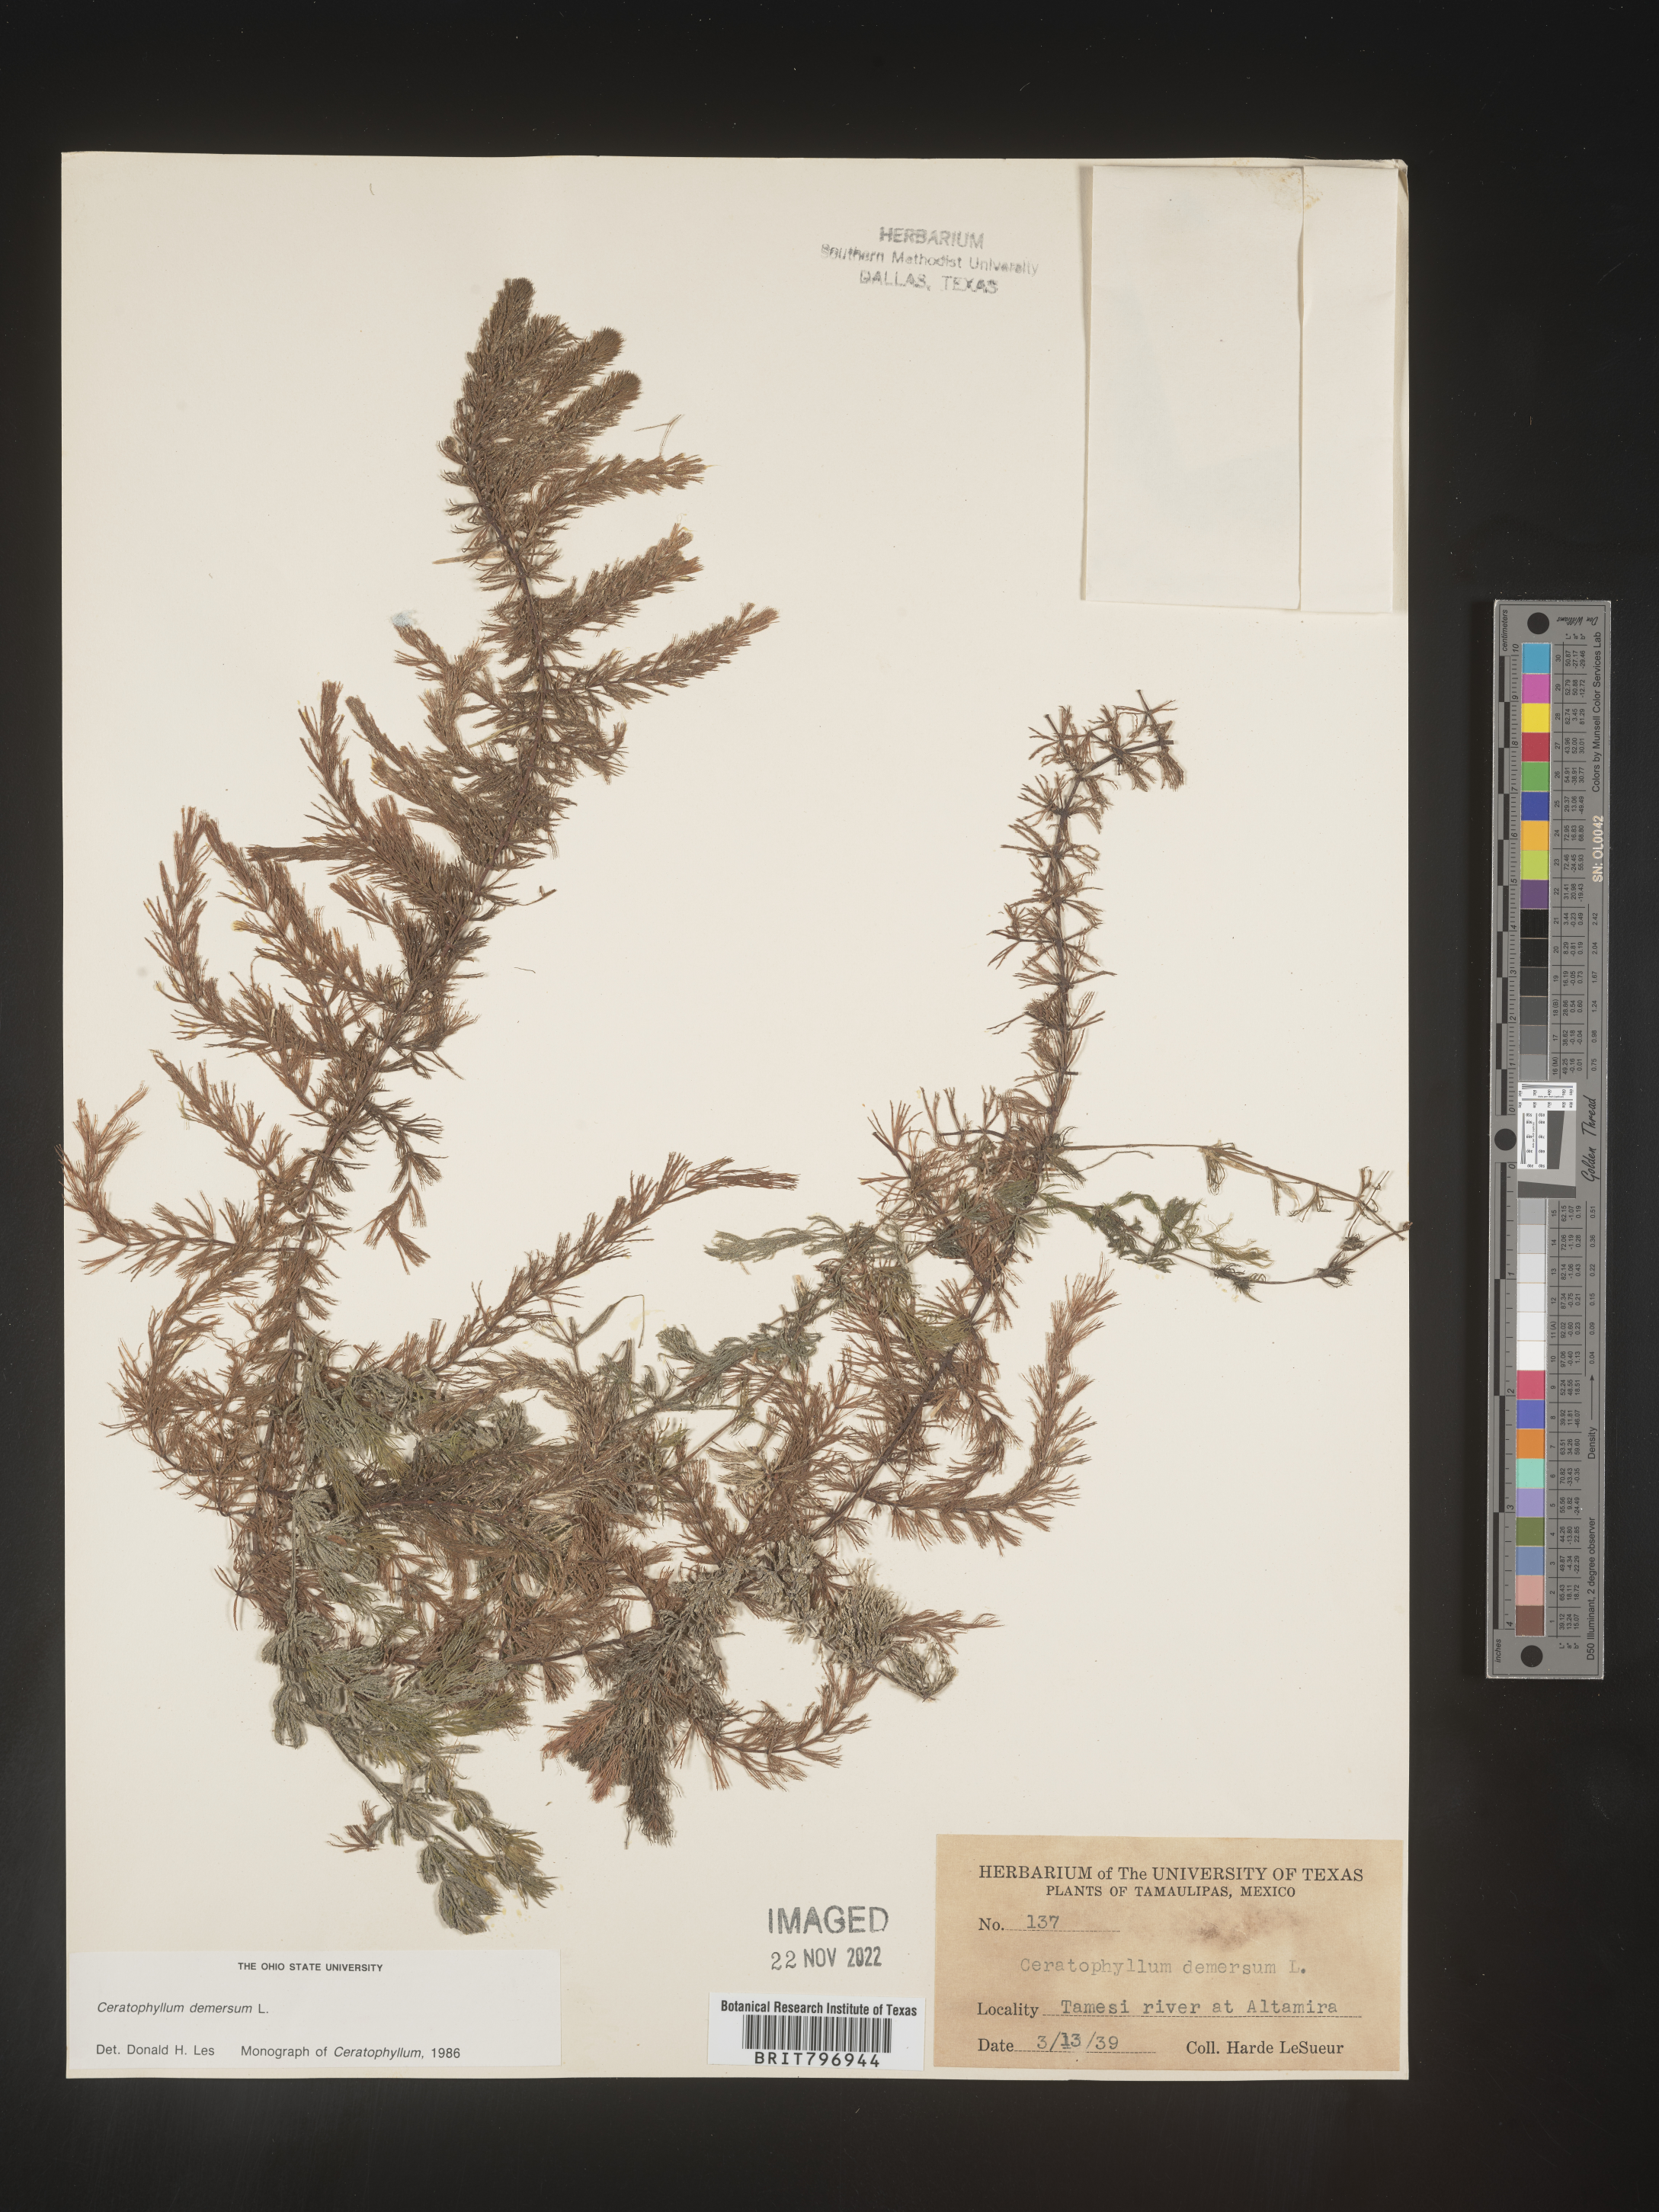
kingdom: Plantae
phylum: Tracheophyta
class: Magnoliopsida
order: Ceratophyllales
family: Ceratophyllaceae
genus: Ceratophyllum
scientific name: Ceratophyllum
